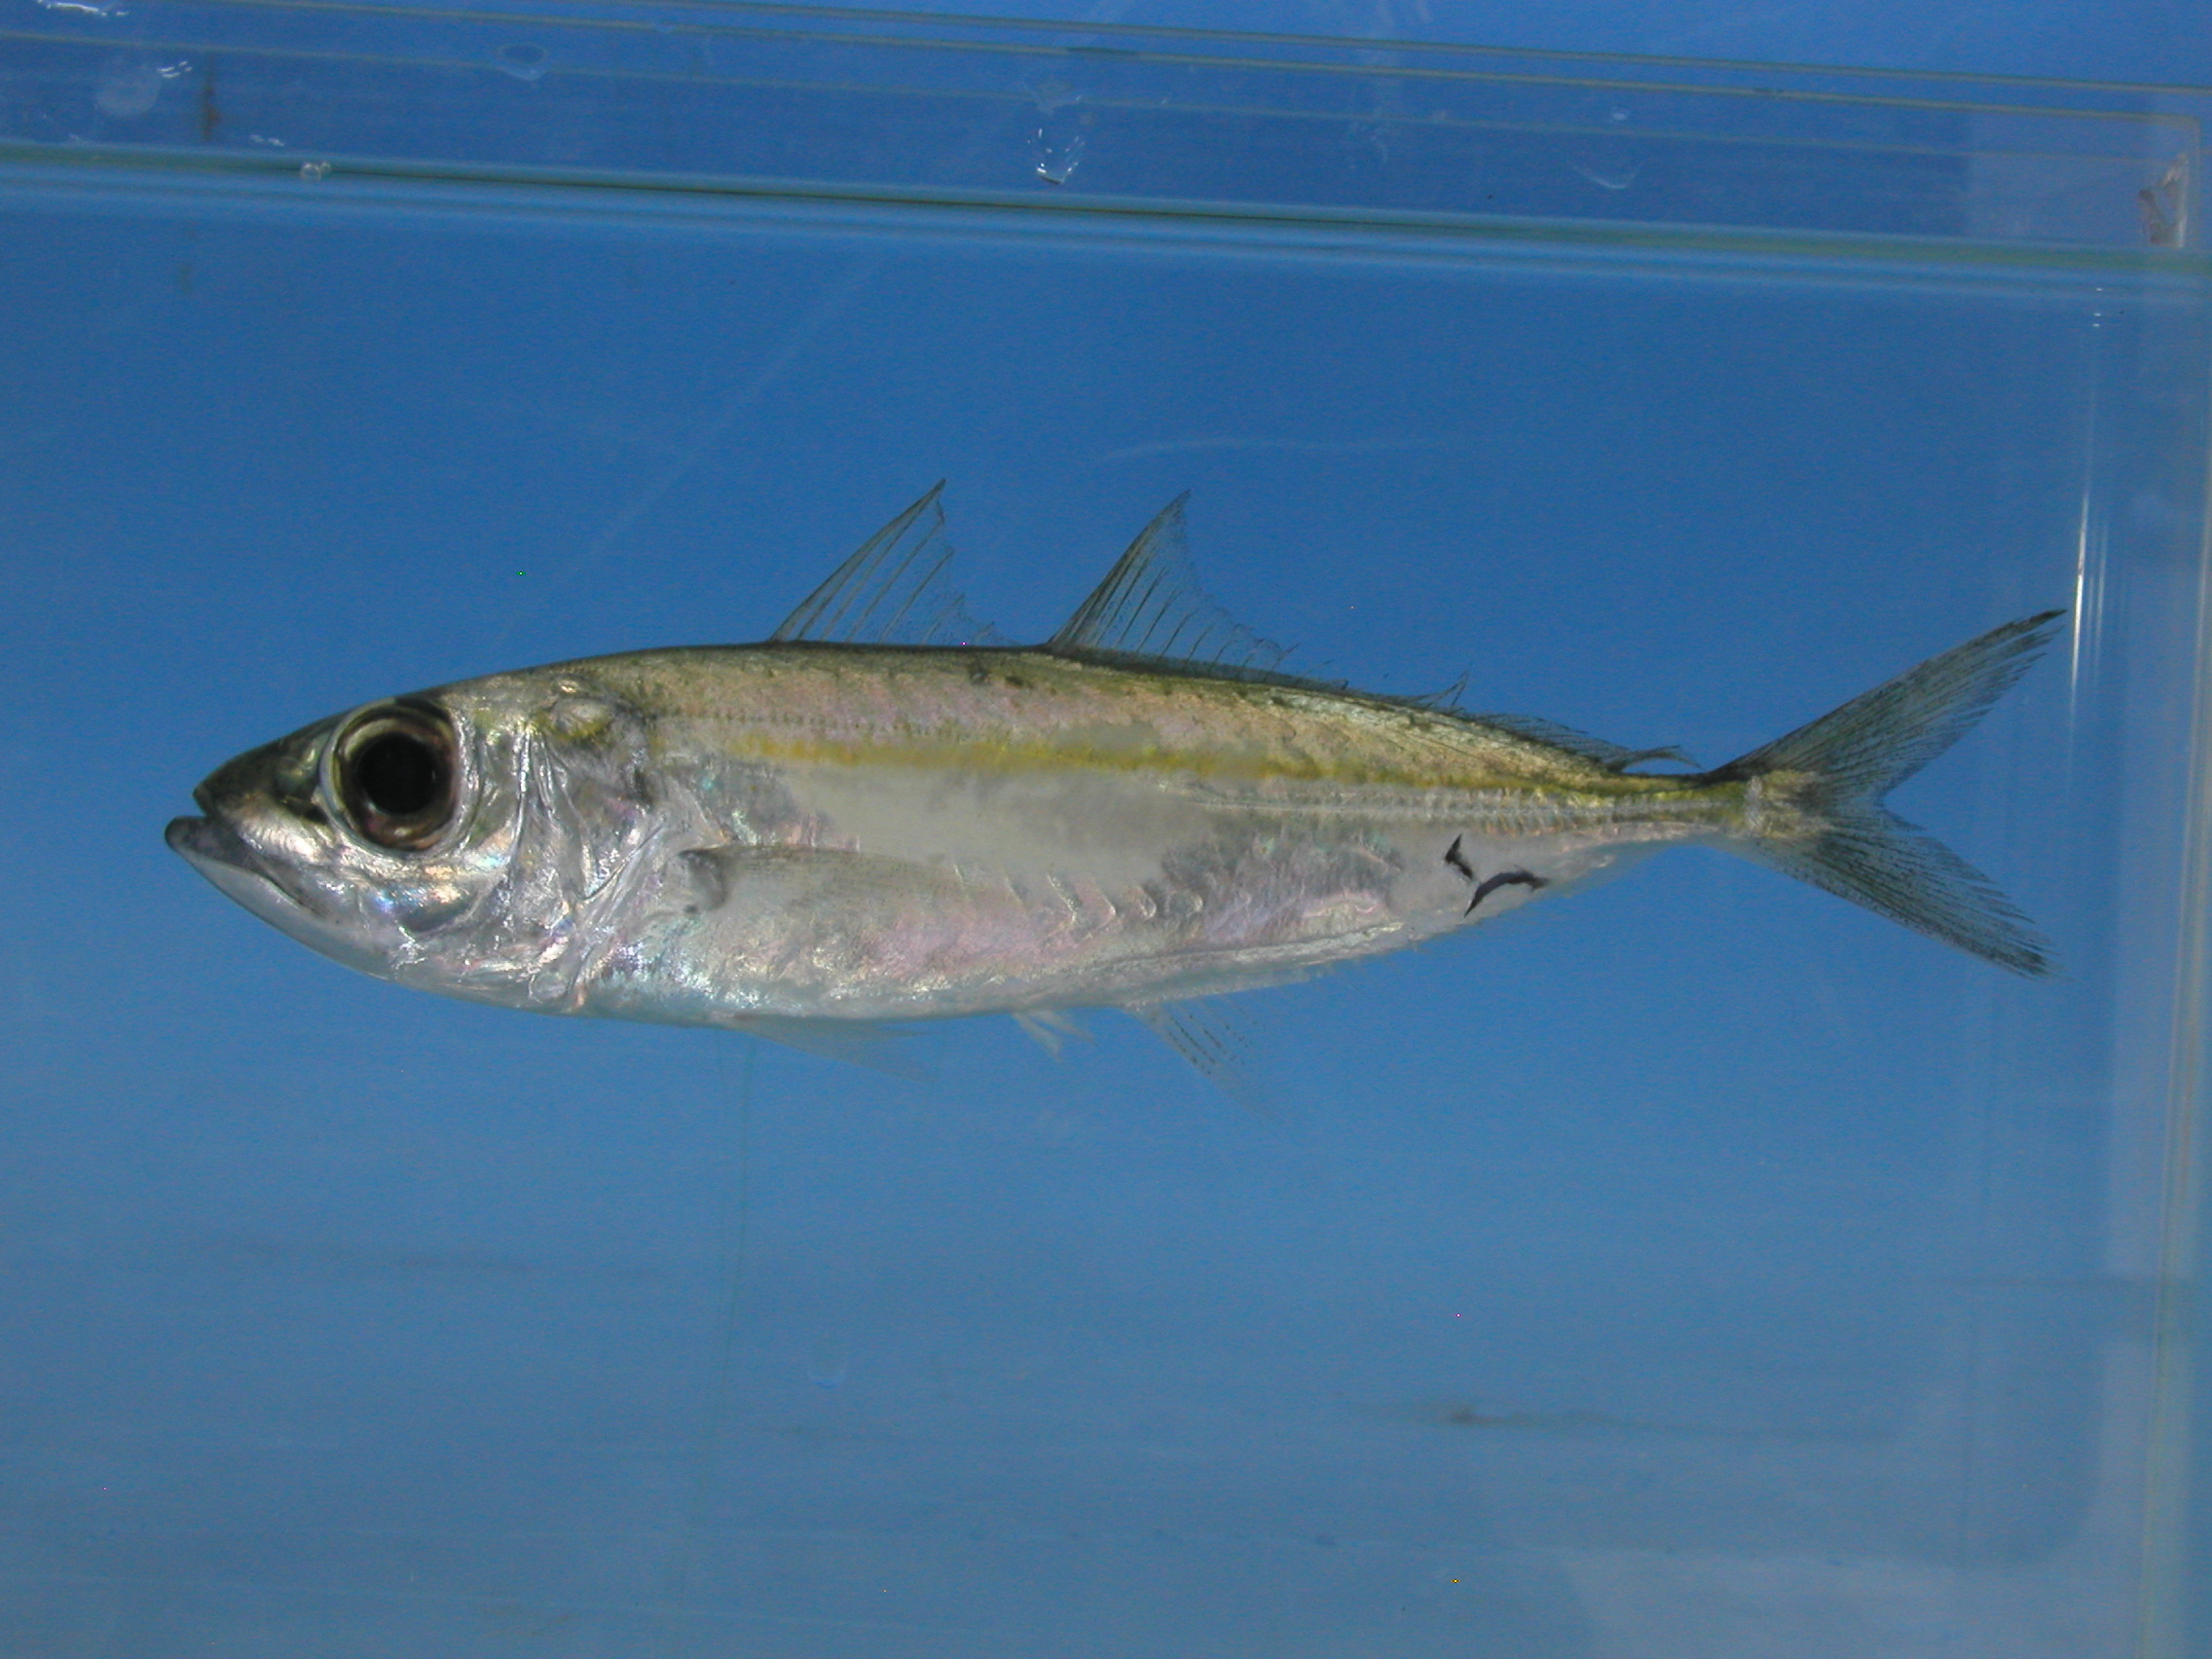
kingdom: Animalia
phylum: Chordata
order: Perciformes
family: Carangidae
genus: Selar
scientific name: Selar crumenophthalmus
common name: Bigeye scad
